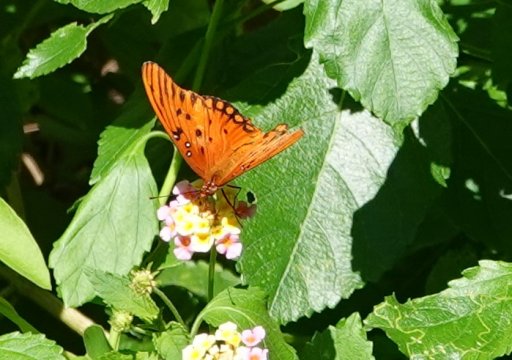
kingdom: Animalia
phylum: Arthropoda
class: Insecta
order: Lepidoptera
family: Nymphalidae
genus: Dione
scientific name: Dione vanillae
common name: Gulf Fritillary
